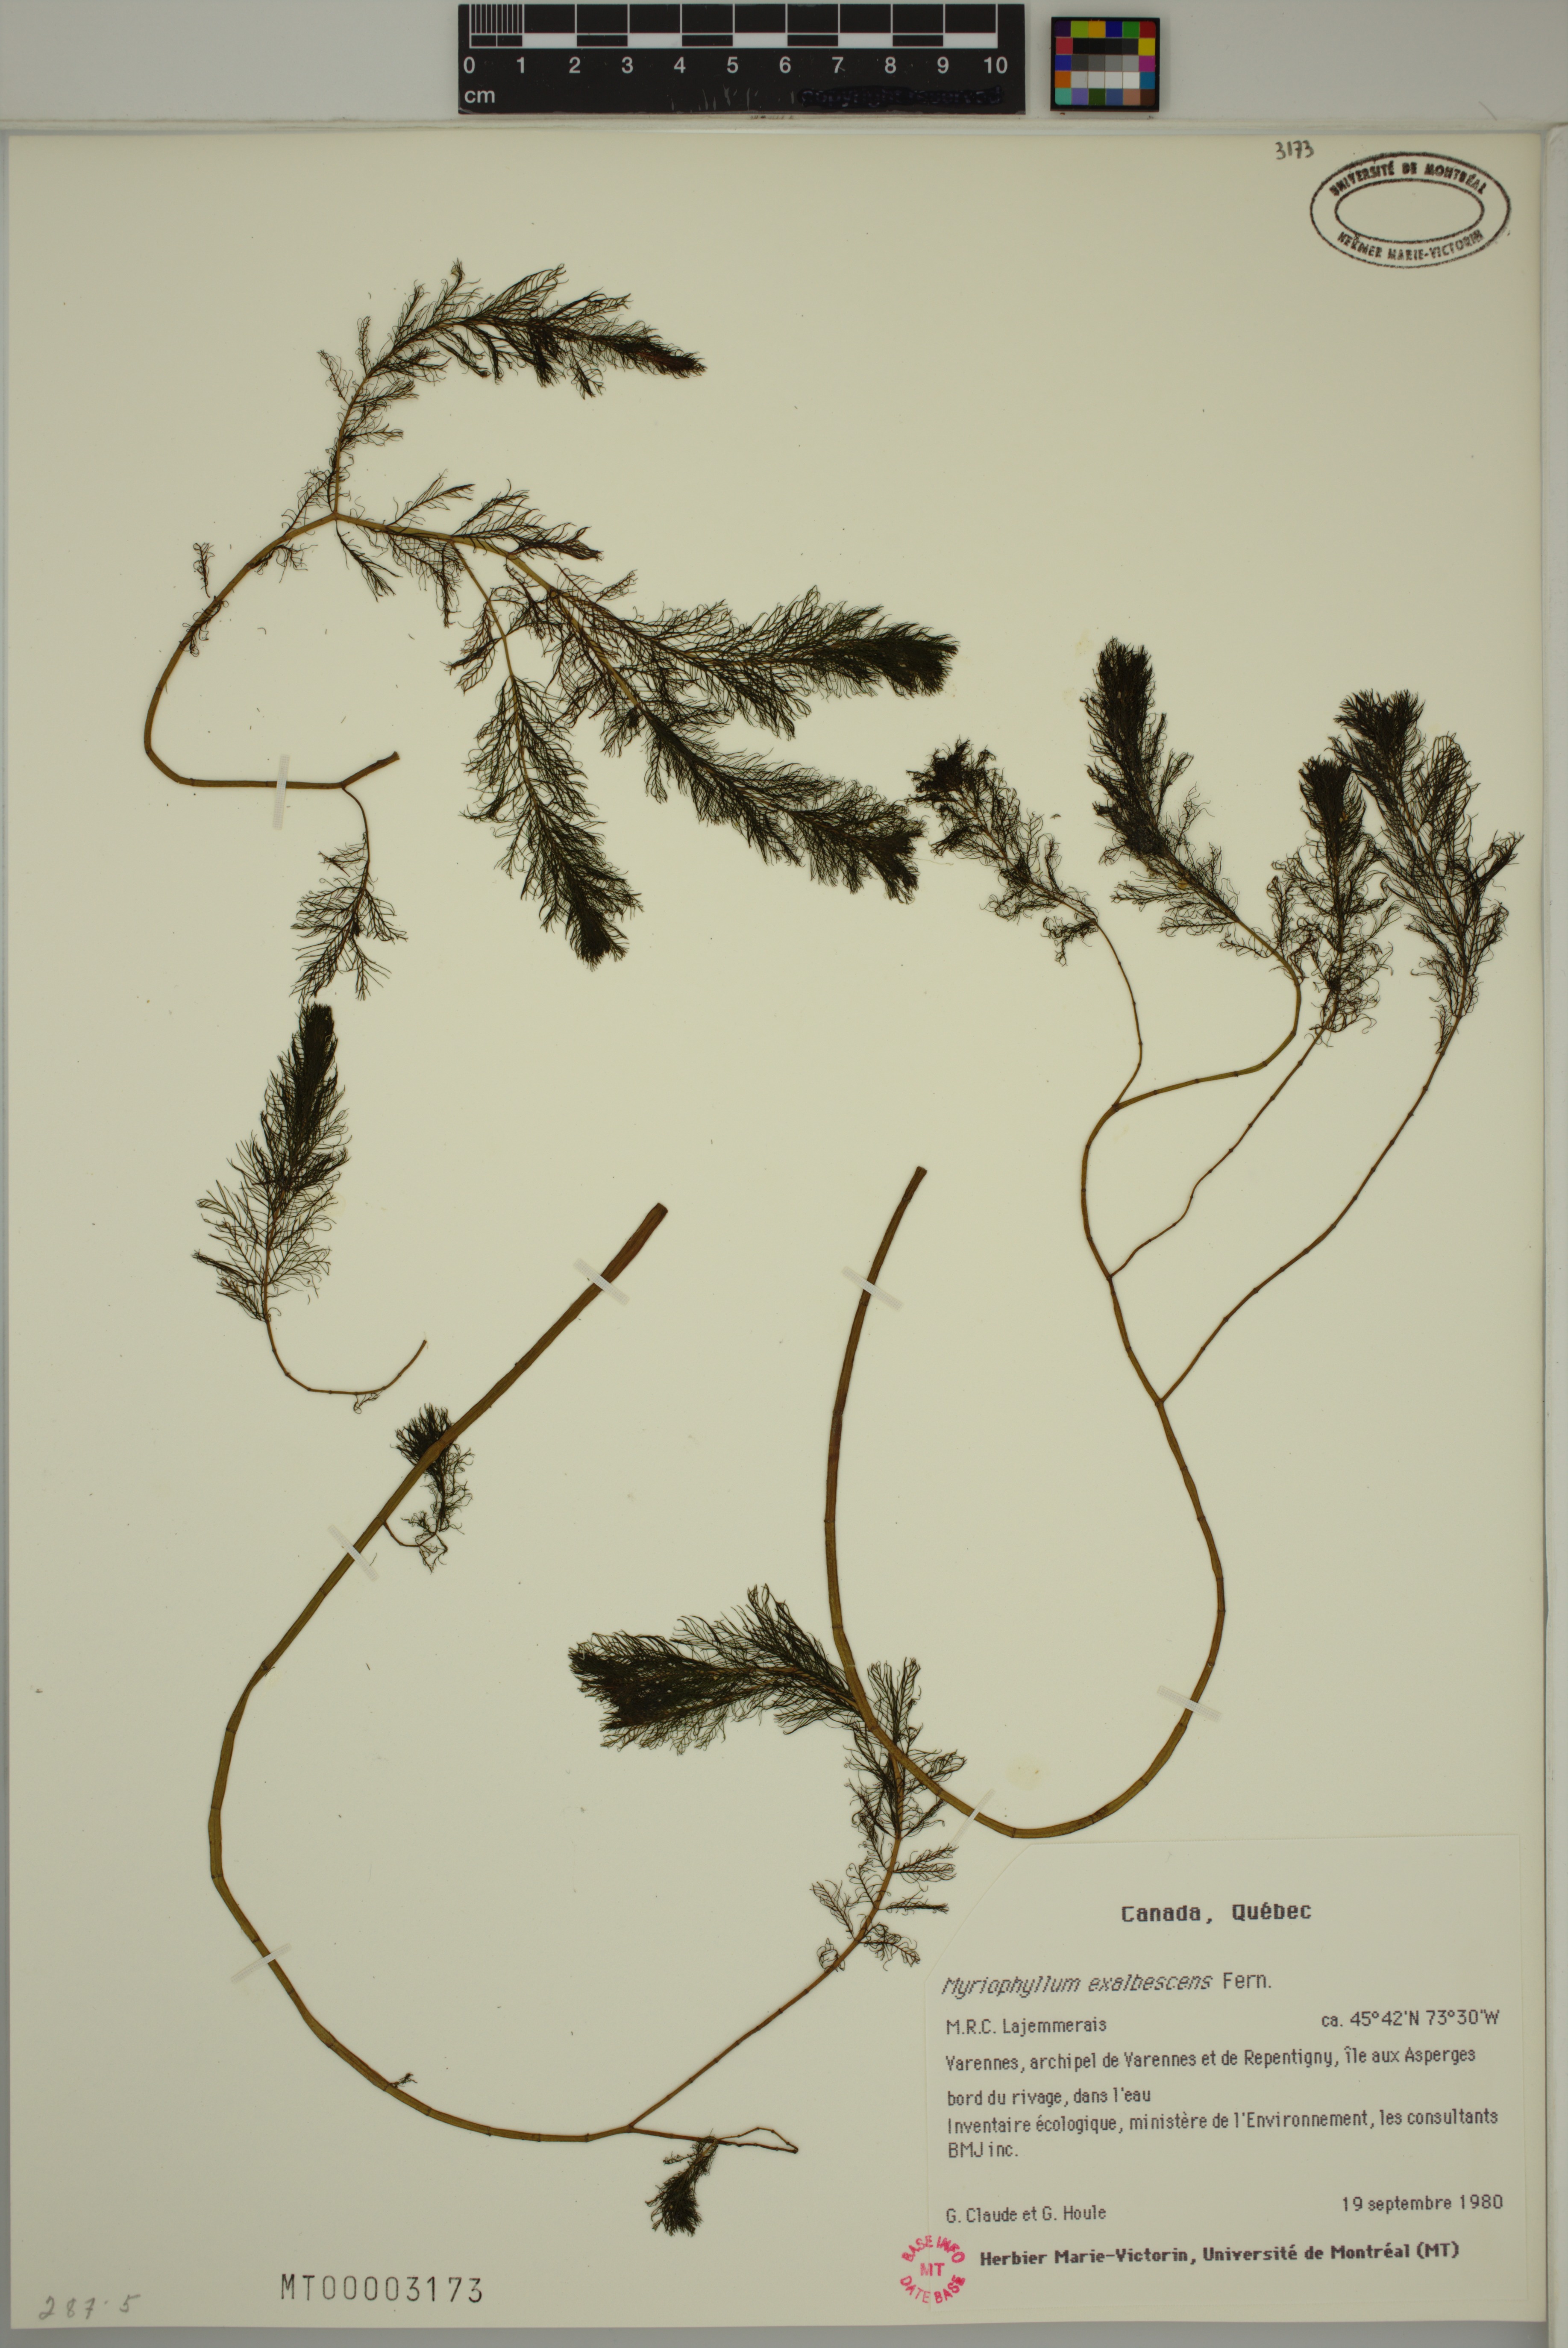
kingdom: Plantae
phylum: Tracheophyta
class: Magnoliopsida
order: Saxifragales
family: Haloragaceae
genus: Myriophyllum
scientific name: Myriophyllum sibiricum
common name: Siberian water-milfoil
